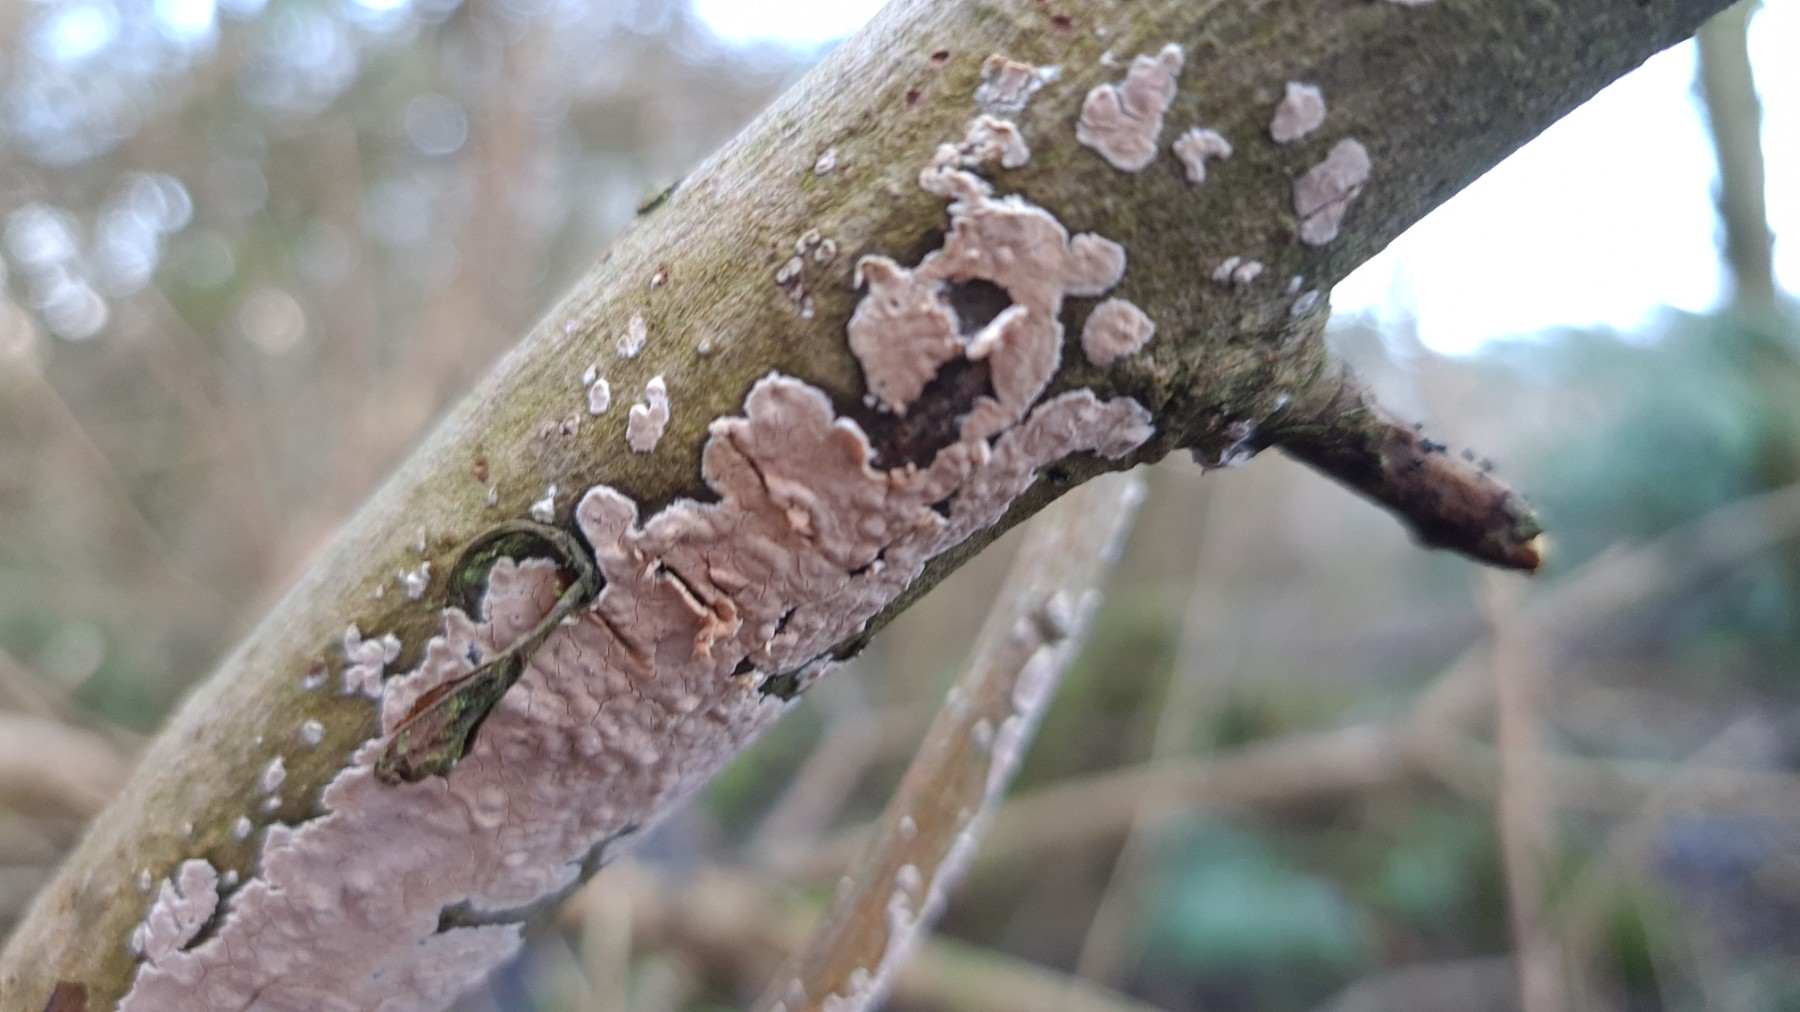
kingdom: Fungi
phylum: Basidiomycota
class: Agaricomycetes
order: Agaricales
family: Physalacriaceae
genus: Cylindrobasidium
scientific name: Cylindrobasidium evolvens
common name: sprækkehinde
